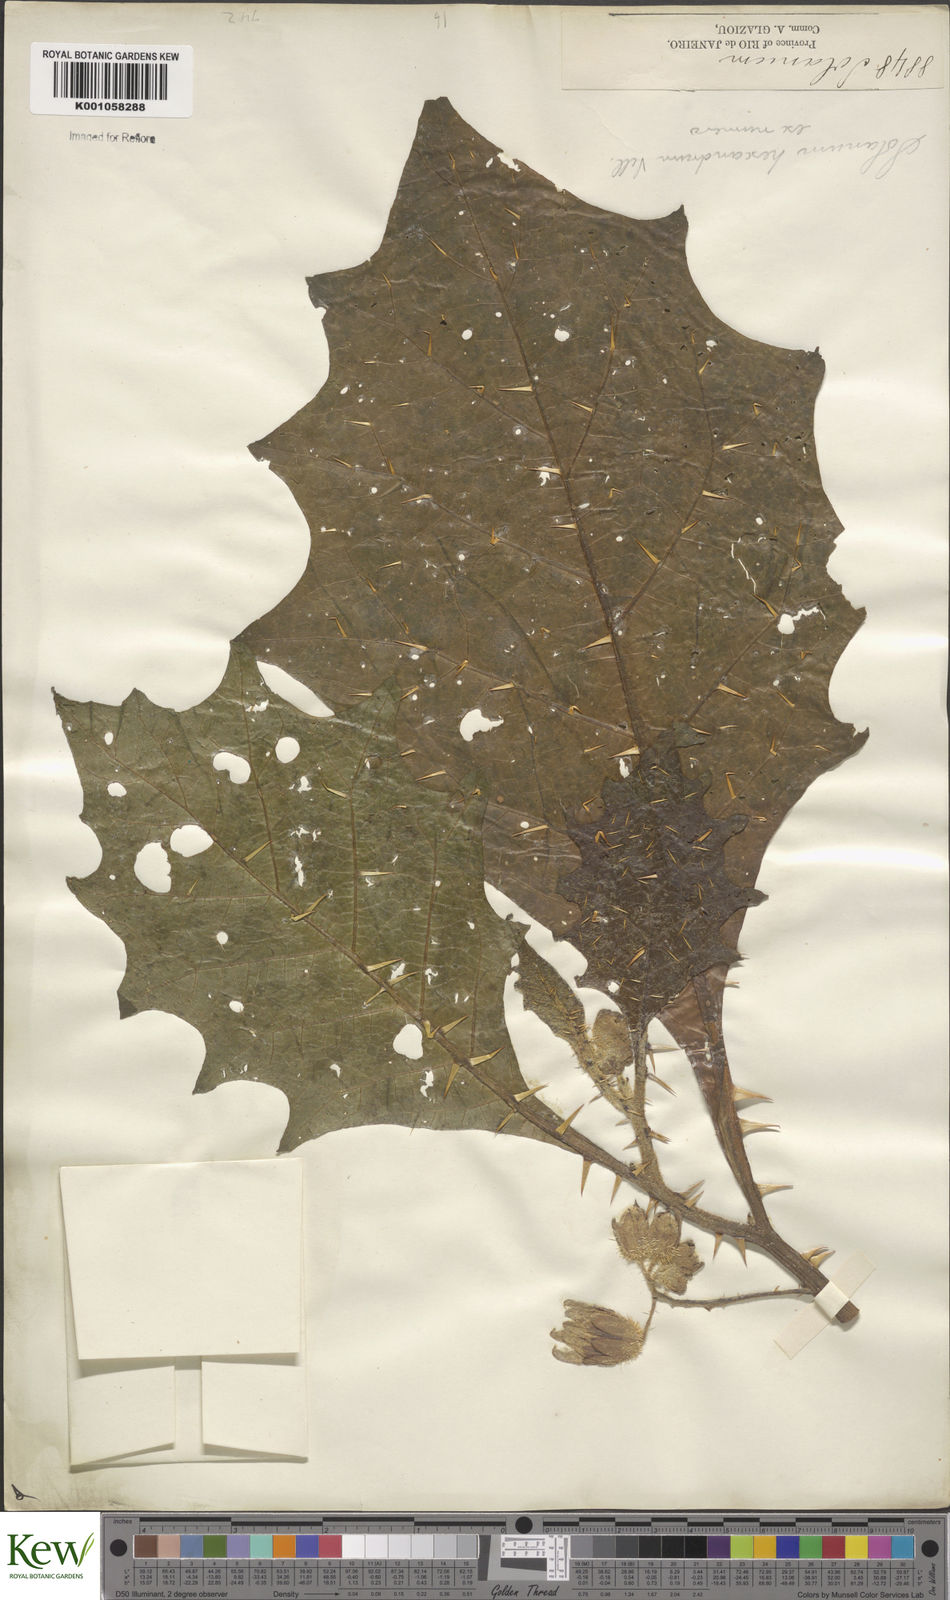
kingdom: Plantae
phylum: Tracheophyta
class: Magnoliopsida
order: Solanales
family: Solanaceae
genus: Solanum
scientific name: Solanum hexandrum
